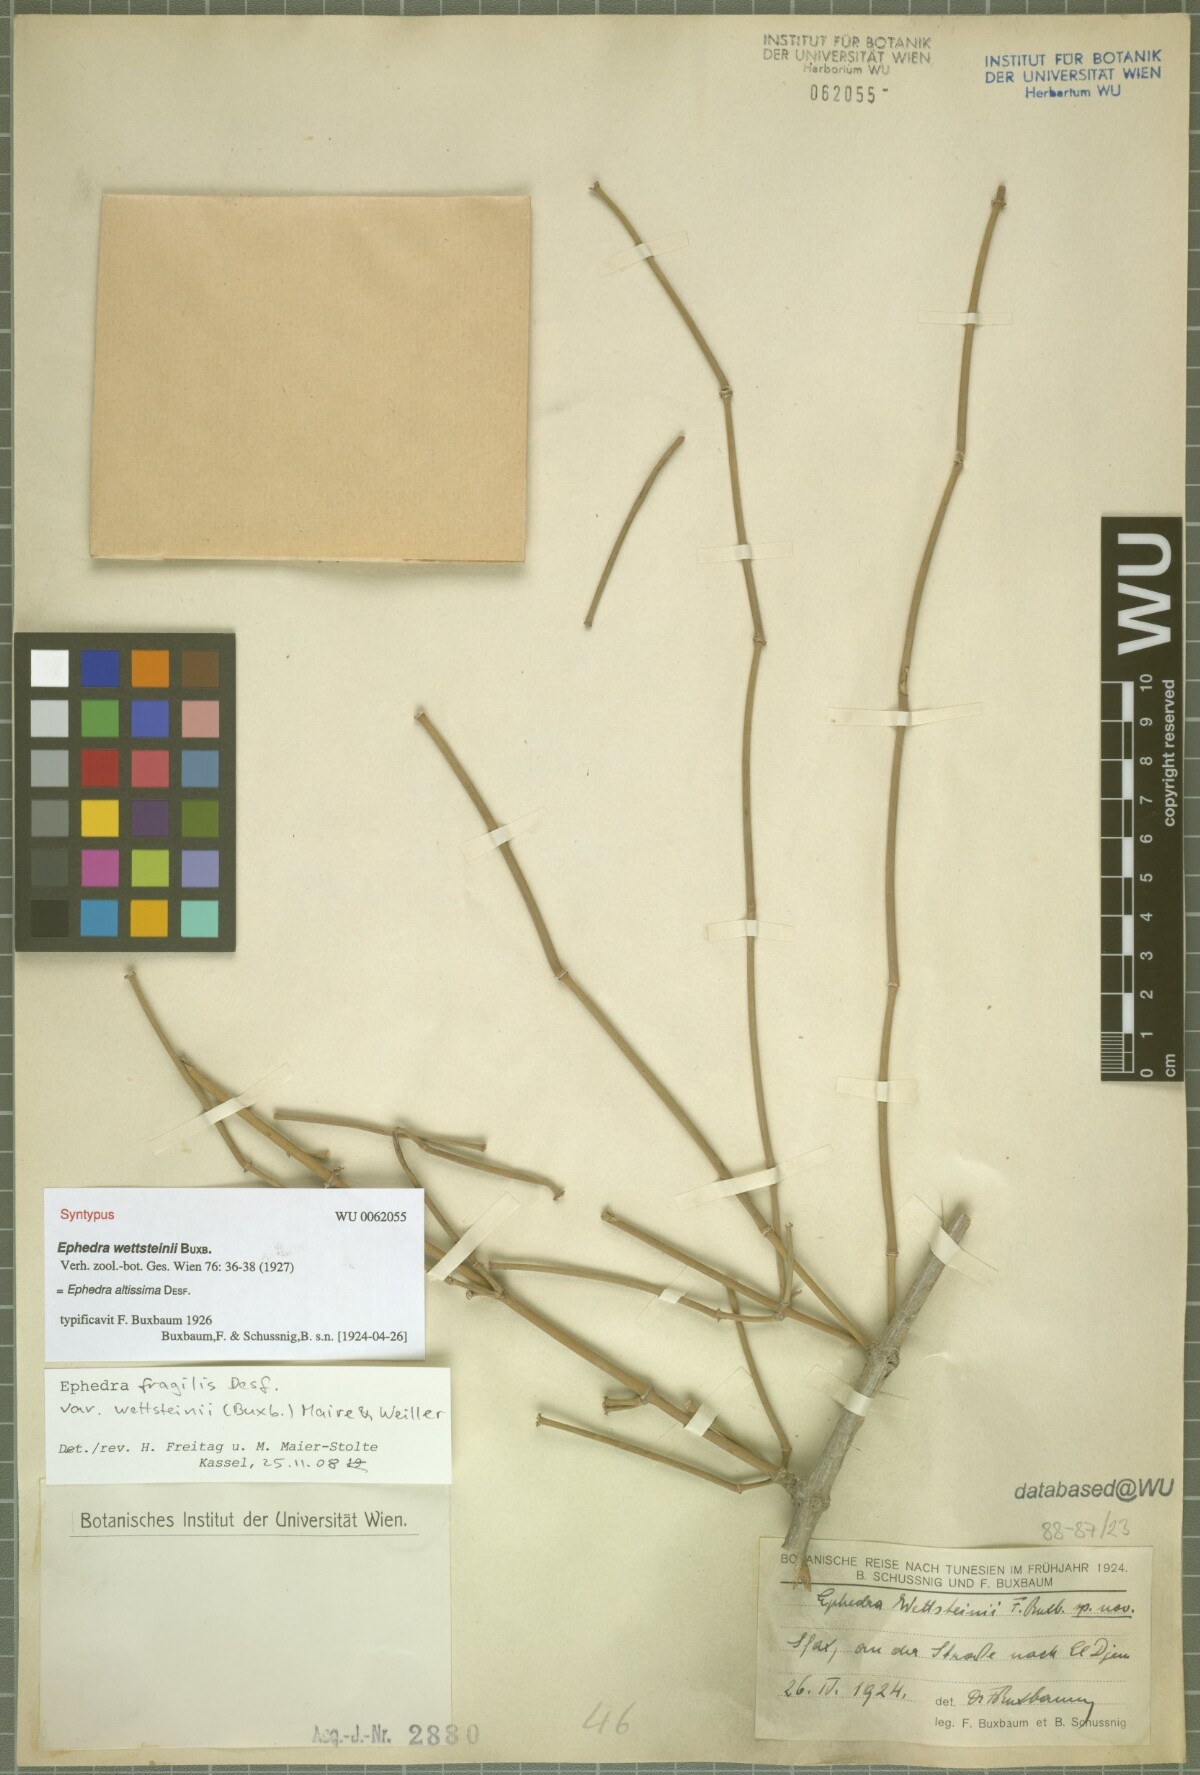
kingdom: Plantae
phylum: Tracheophyta
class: Gnetopsida
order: Ephedrales
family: Ephedraceae
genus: Ephedra
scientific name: Ephedra fragilis
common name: Joint pine
